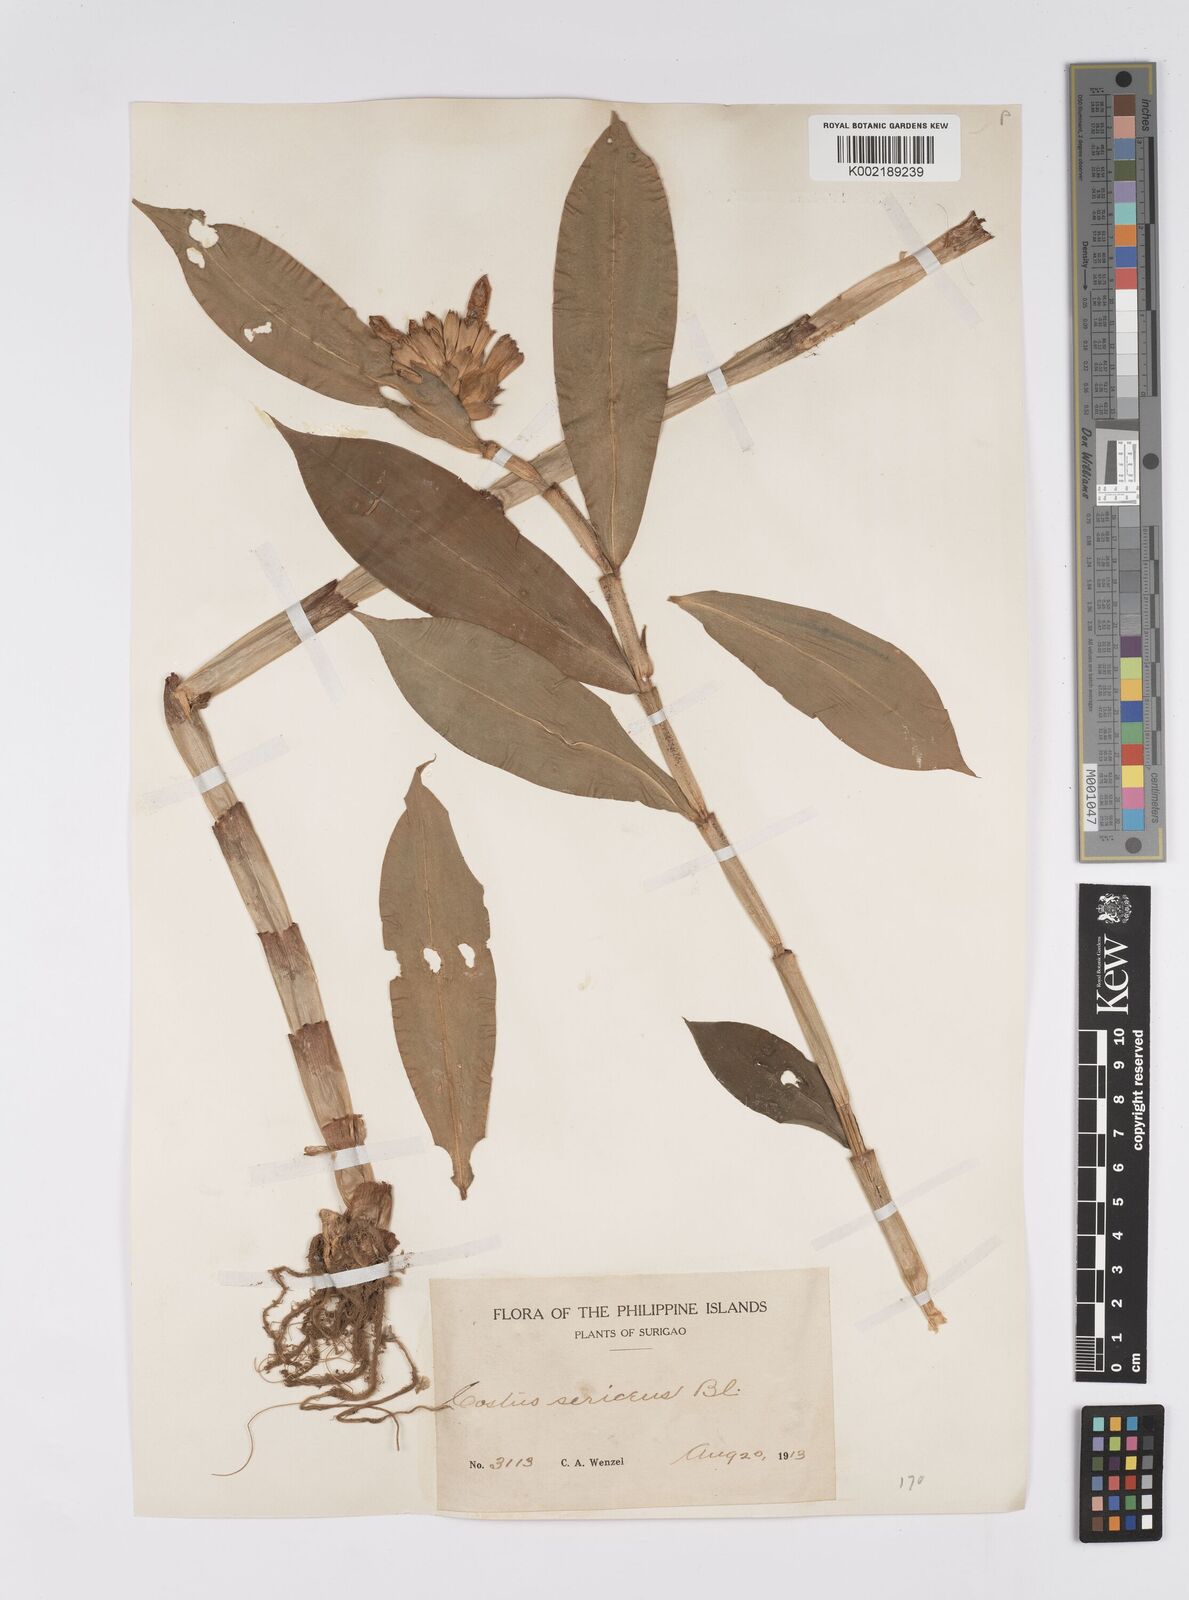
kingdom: Plantae
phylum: Tracheophyta
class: Liliopsida
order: Zingiberales
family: Costaceae
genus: Hellenia
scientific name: Hellenia speciosa
